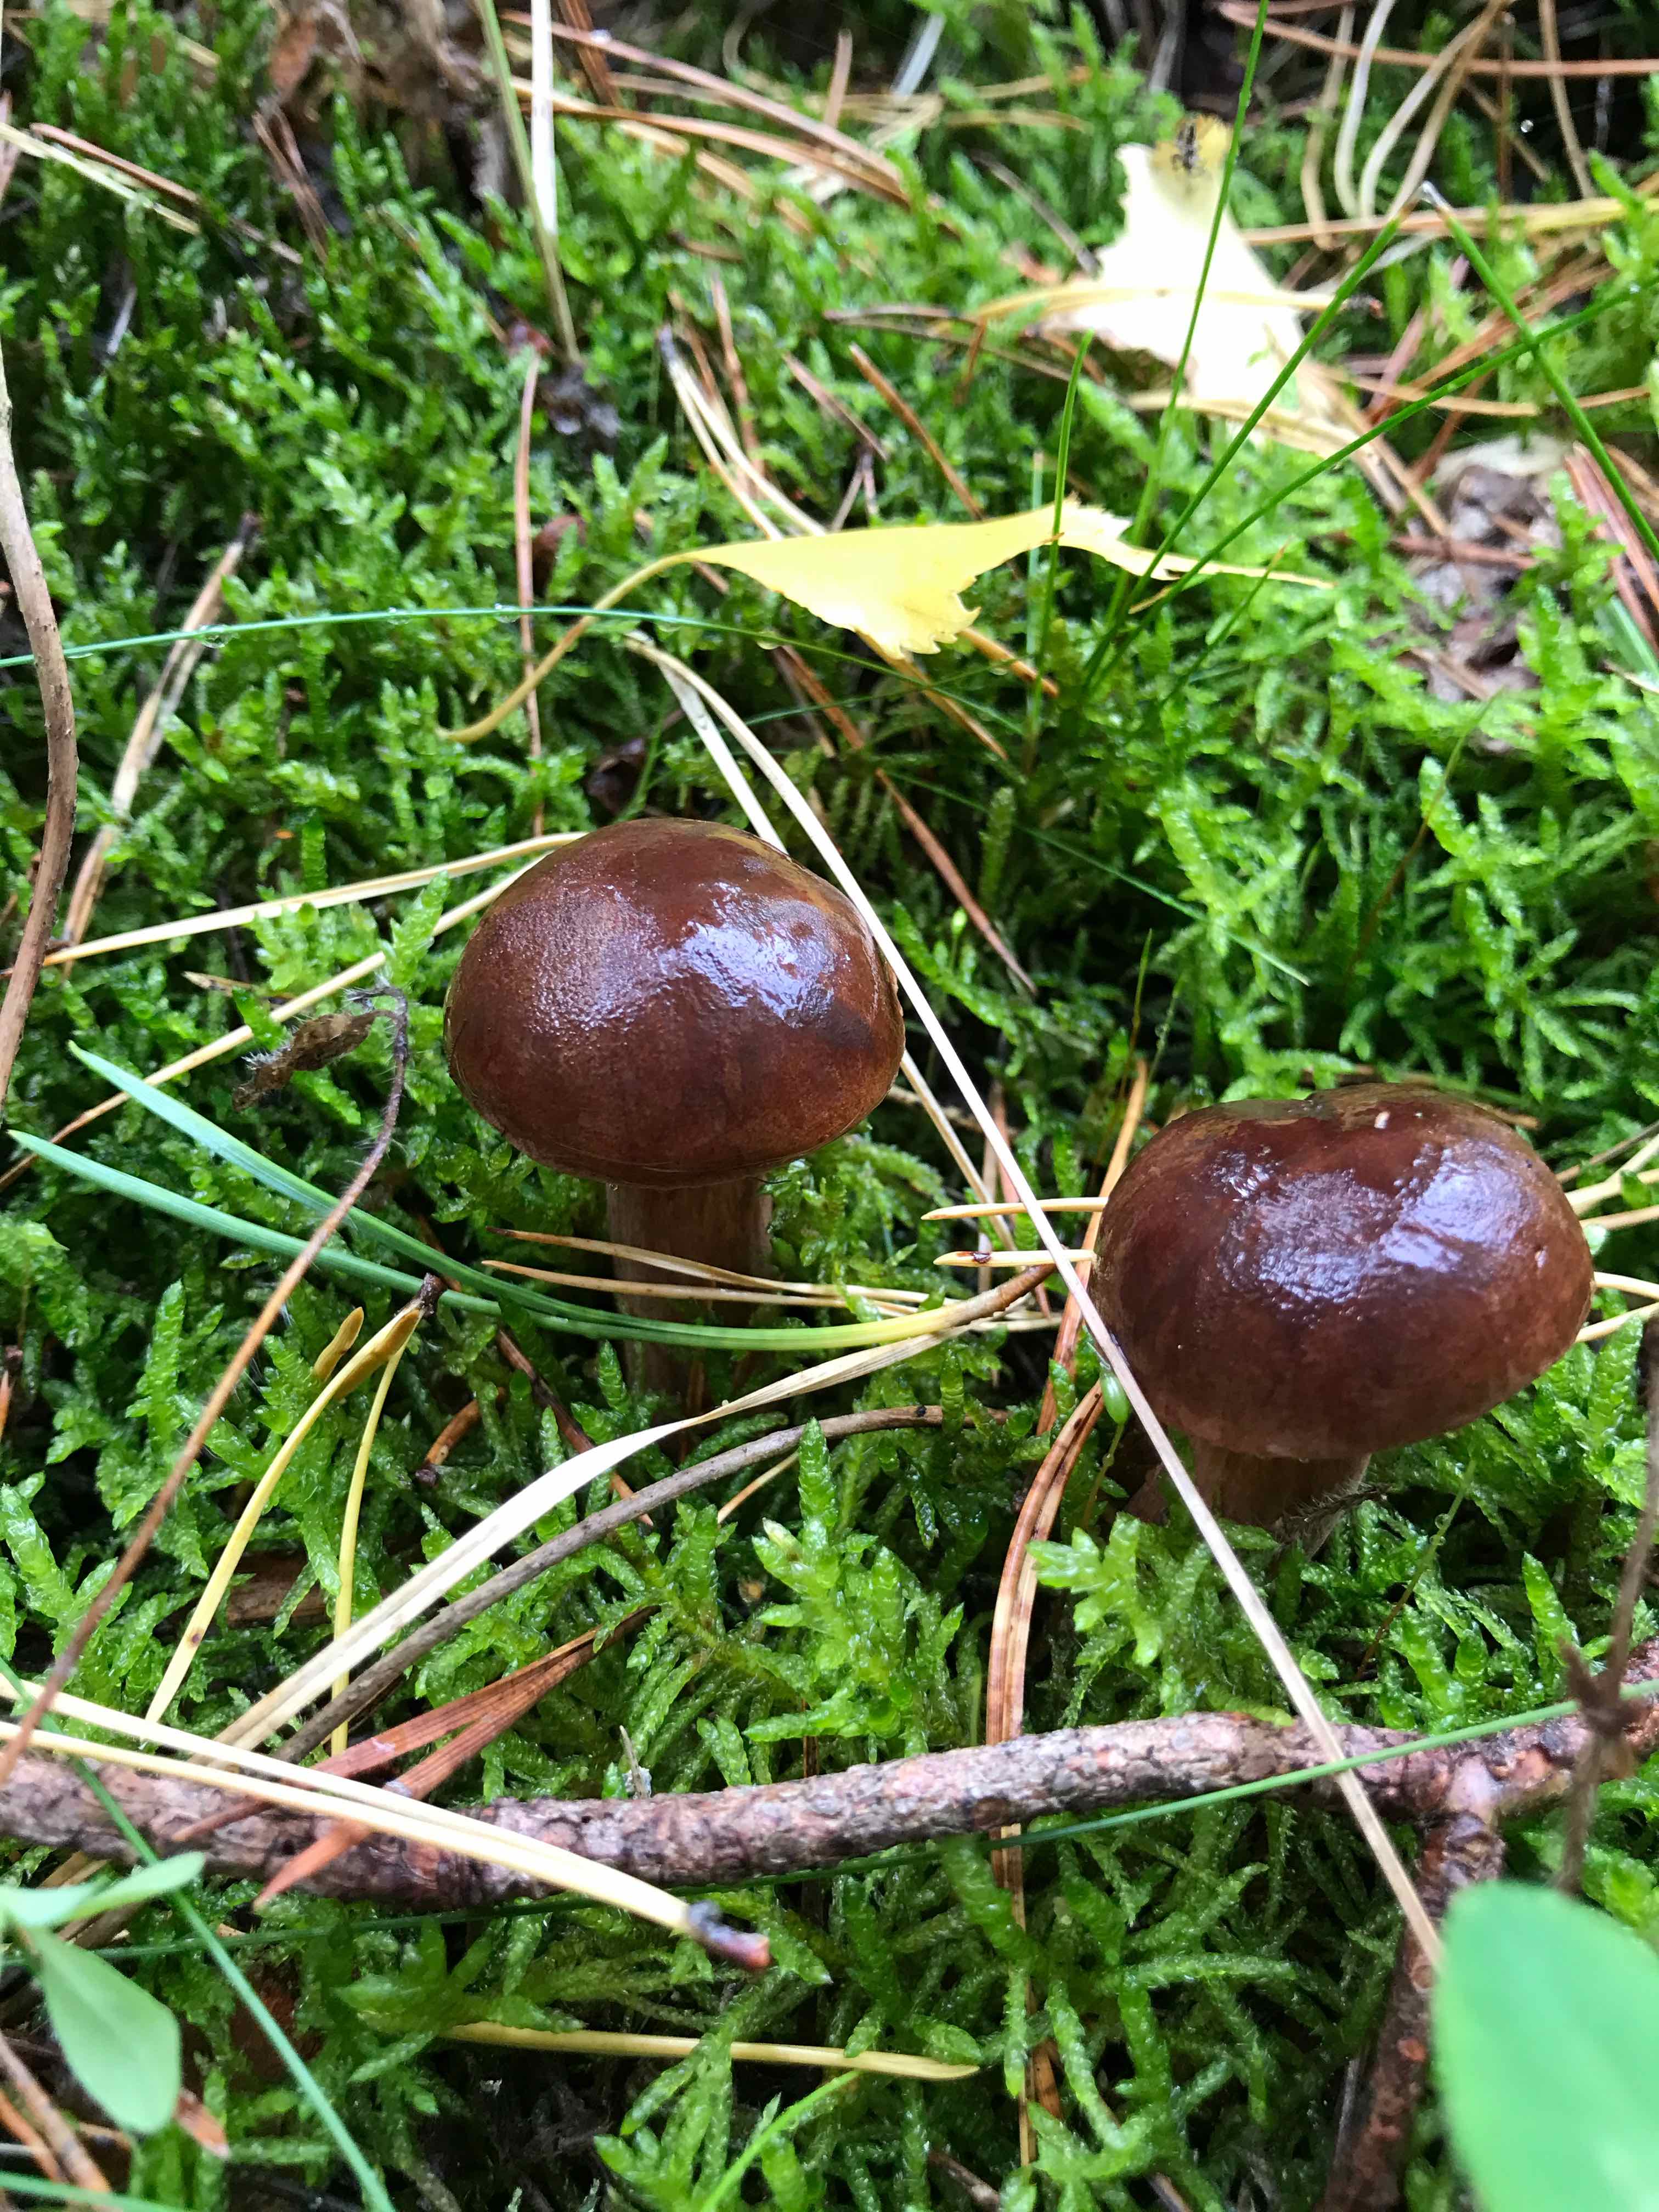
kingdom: Fungi
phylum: Basidiomycota
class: Agaricomycetes
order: Boletales
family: Boletaceae
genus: Imleria
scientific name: Imleria badia
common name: brunstokket rørhat
